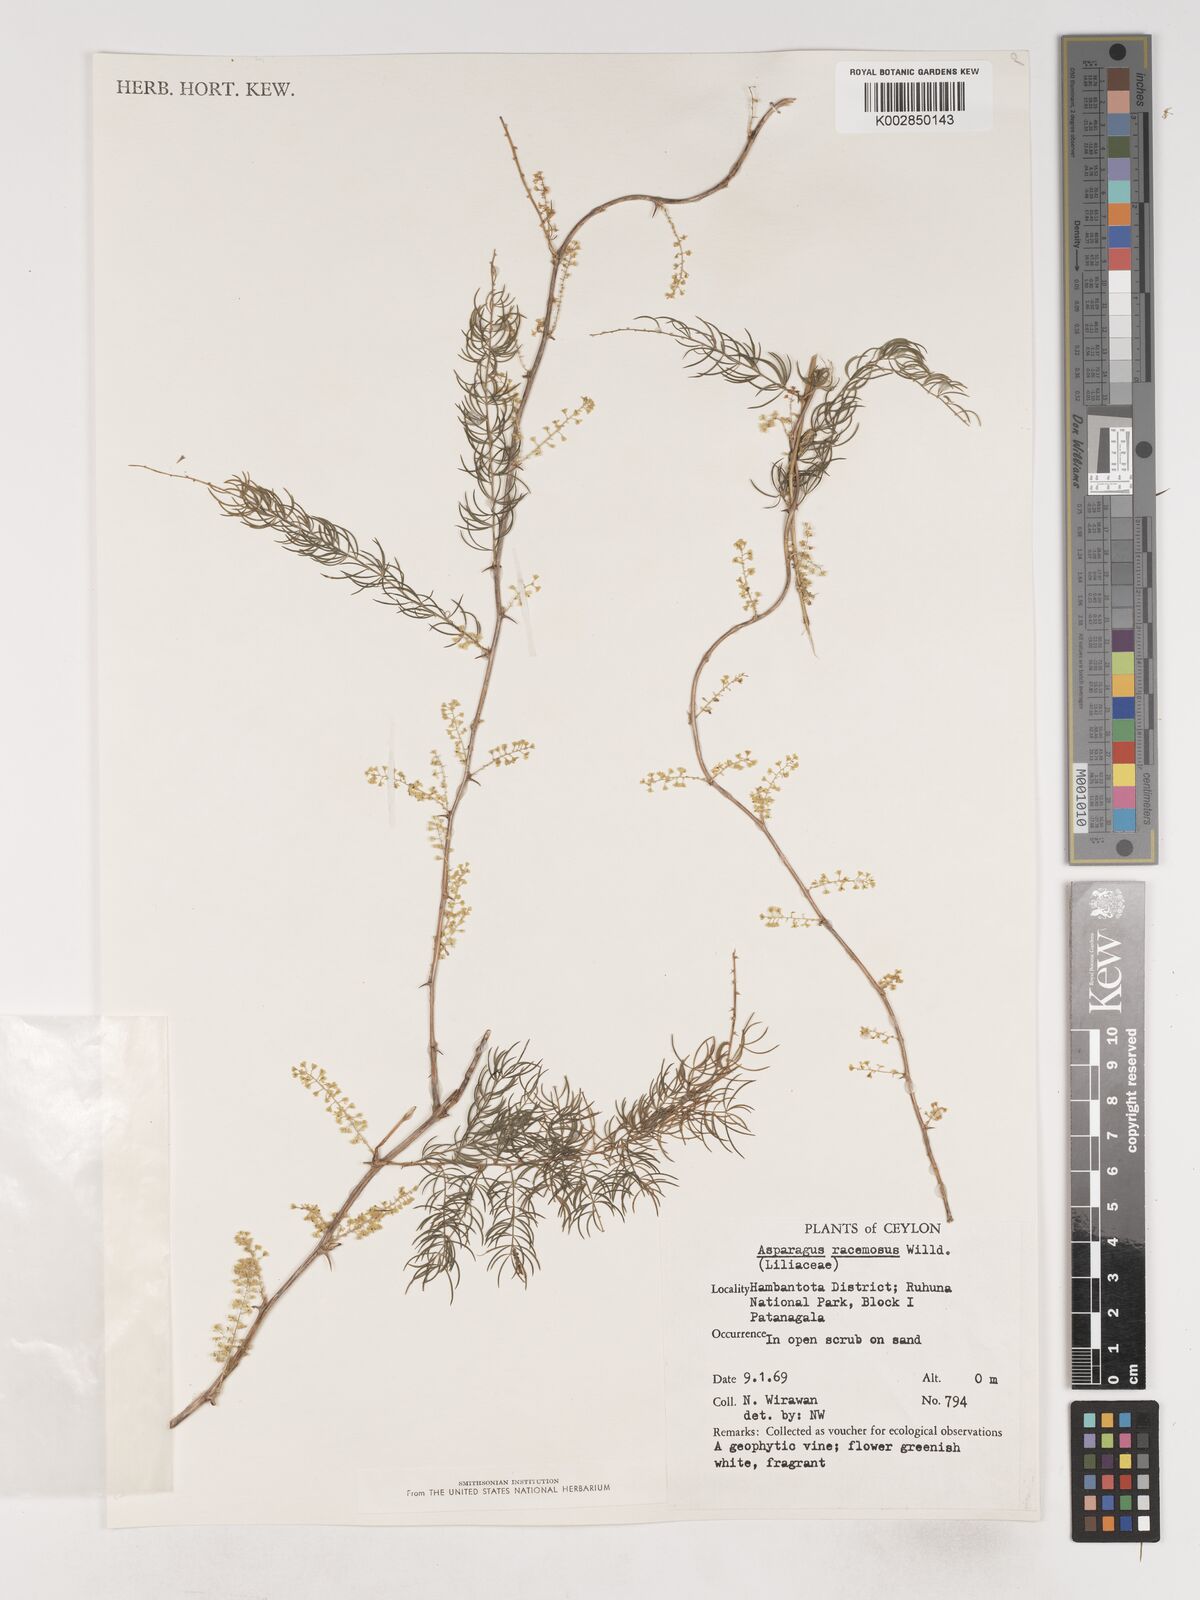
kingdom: Plantae
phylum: Tracheophyta
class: Liliopsida
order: Asparagales
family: Asparagaceae
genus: Asparagus
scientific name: Asparagus racemosus
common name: Asparagus-fern
